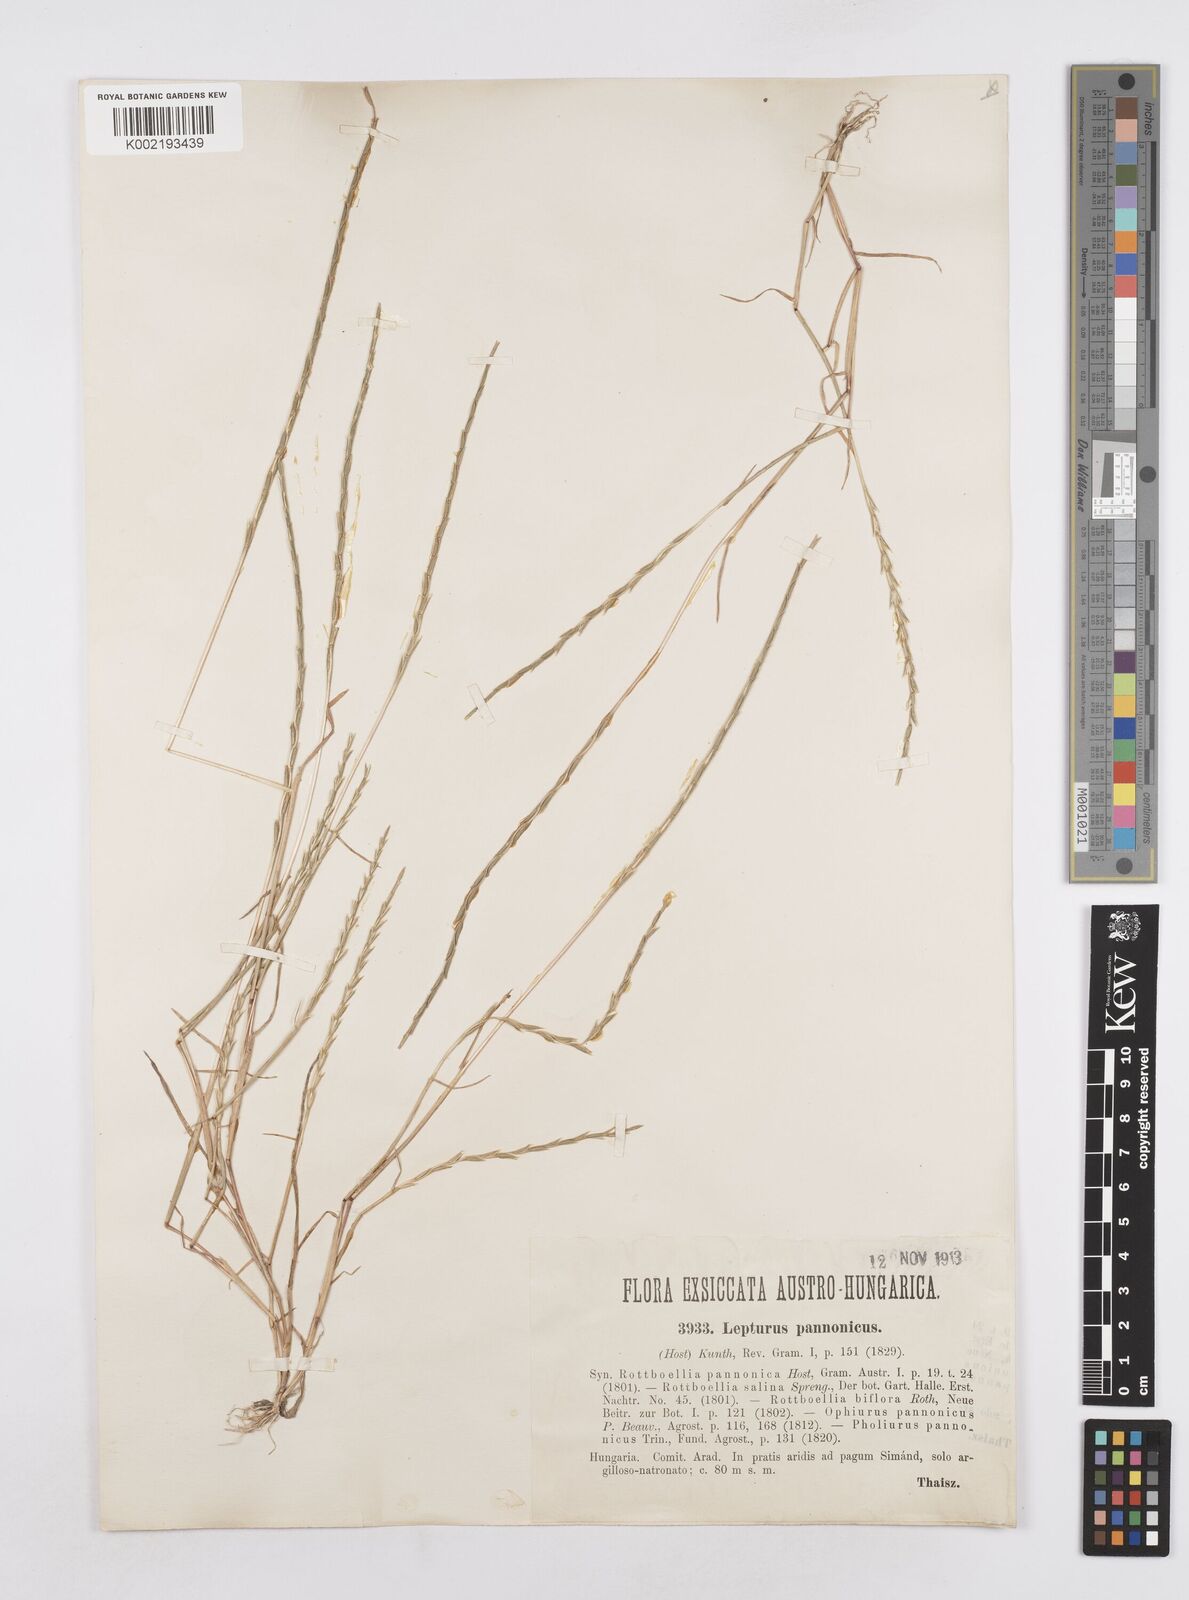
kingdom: Plantae
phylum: Tracheophyta
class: Liliopsida
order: Poales
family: Poaceae
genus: Pholiurus
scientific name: Pholiurus pannonicus
